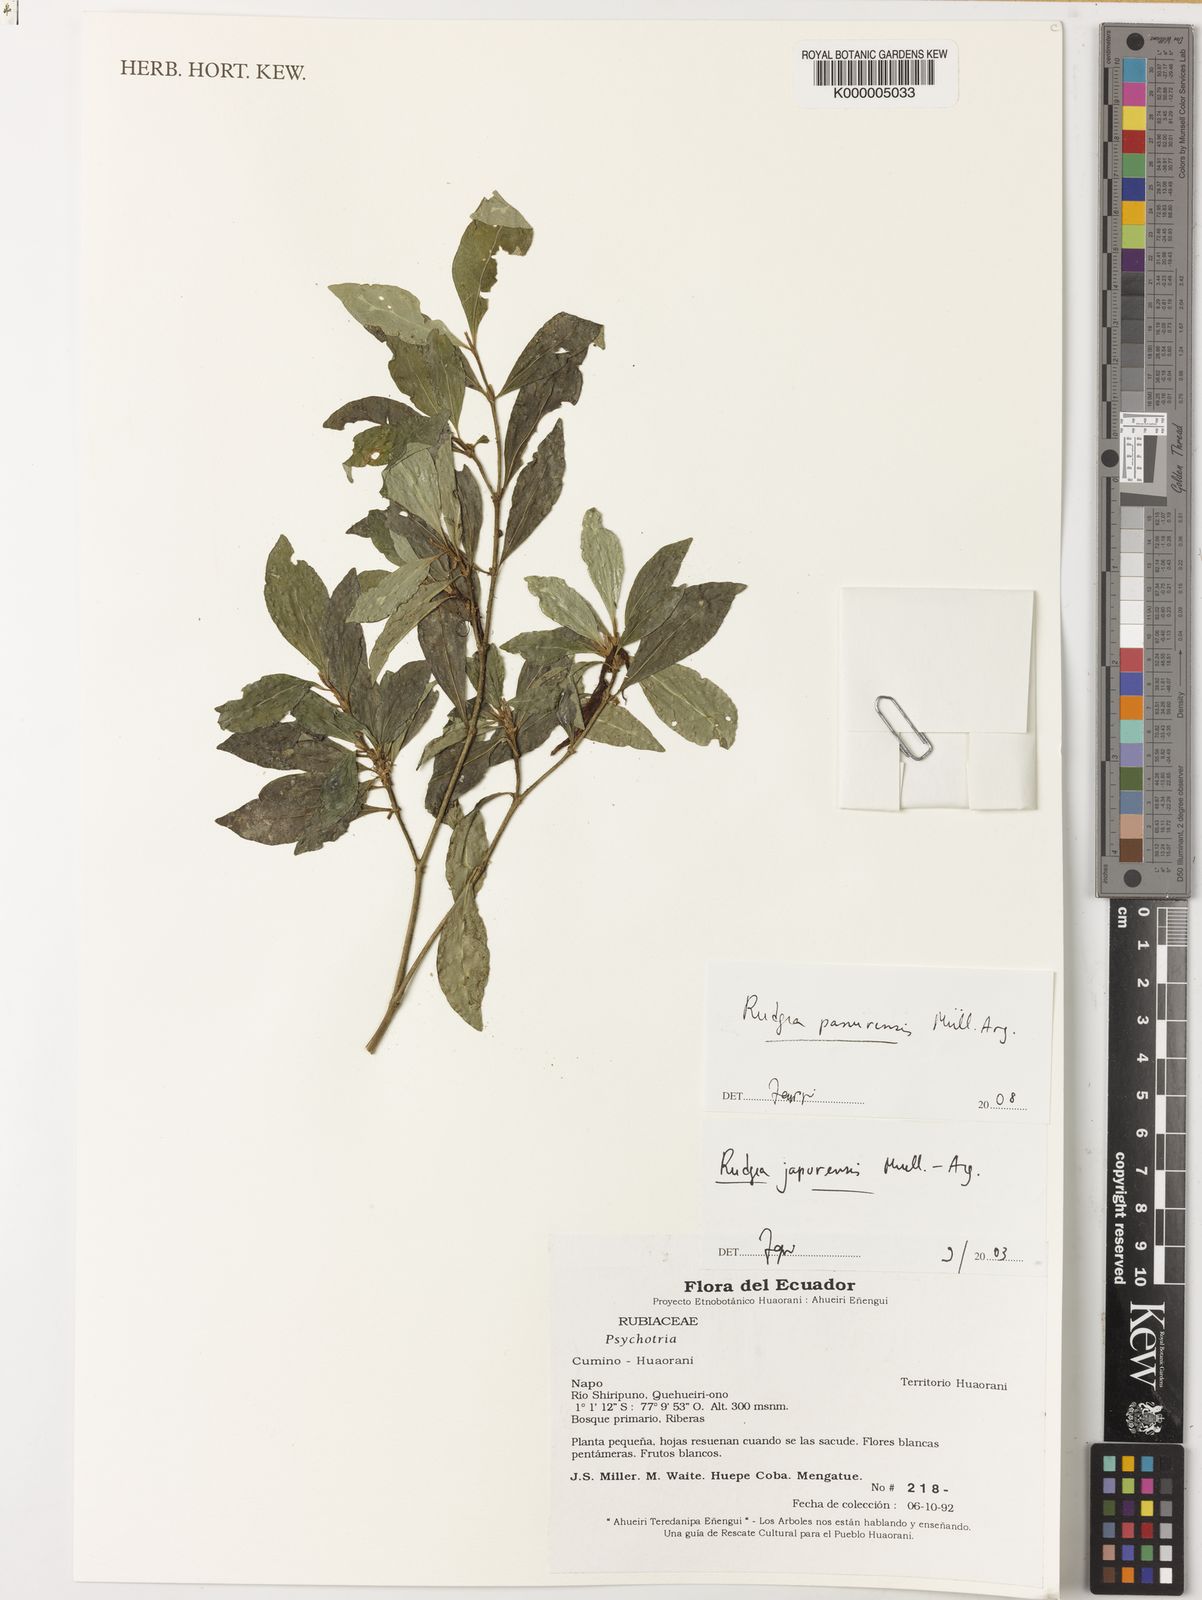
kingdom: Plantae
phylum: Tracheophyta
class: Magnoliopsida
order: Gentianales
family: Rubiaceae
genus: Rudgea
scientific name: Rudgea panurensis
